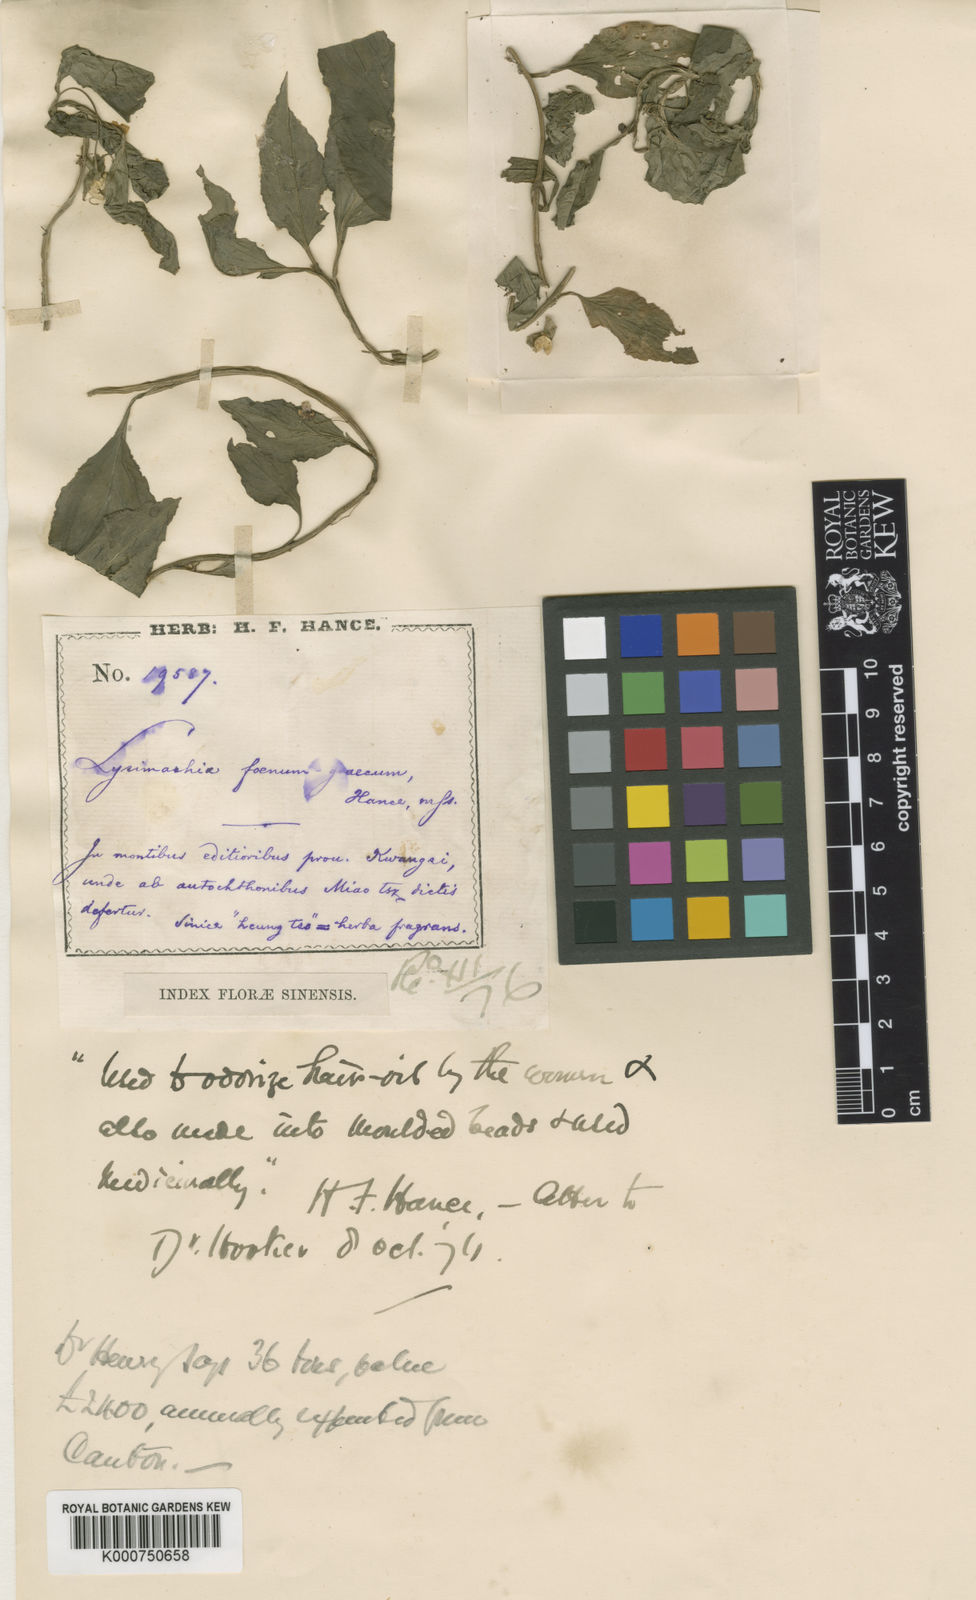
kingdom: Plantae
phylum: Tracheophyta
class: Magnoliopsida
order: Ericales
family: Primulaceae
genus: Lysimachia
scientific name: Lysimachia foenum-graecum
